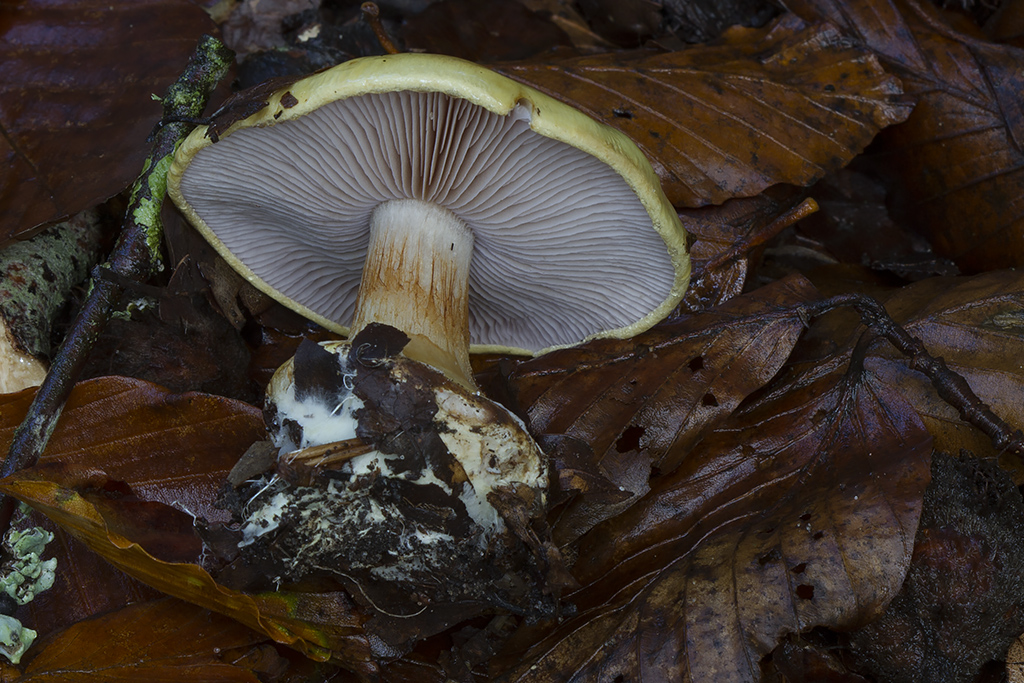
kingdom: Fungi
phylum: Basidiomycota
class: Agaricomycetes
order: Agaricales
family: Cortinariaceae
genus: Calonarius
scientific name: Calonarius callochrous
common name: lillabladet slørhat
